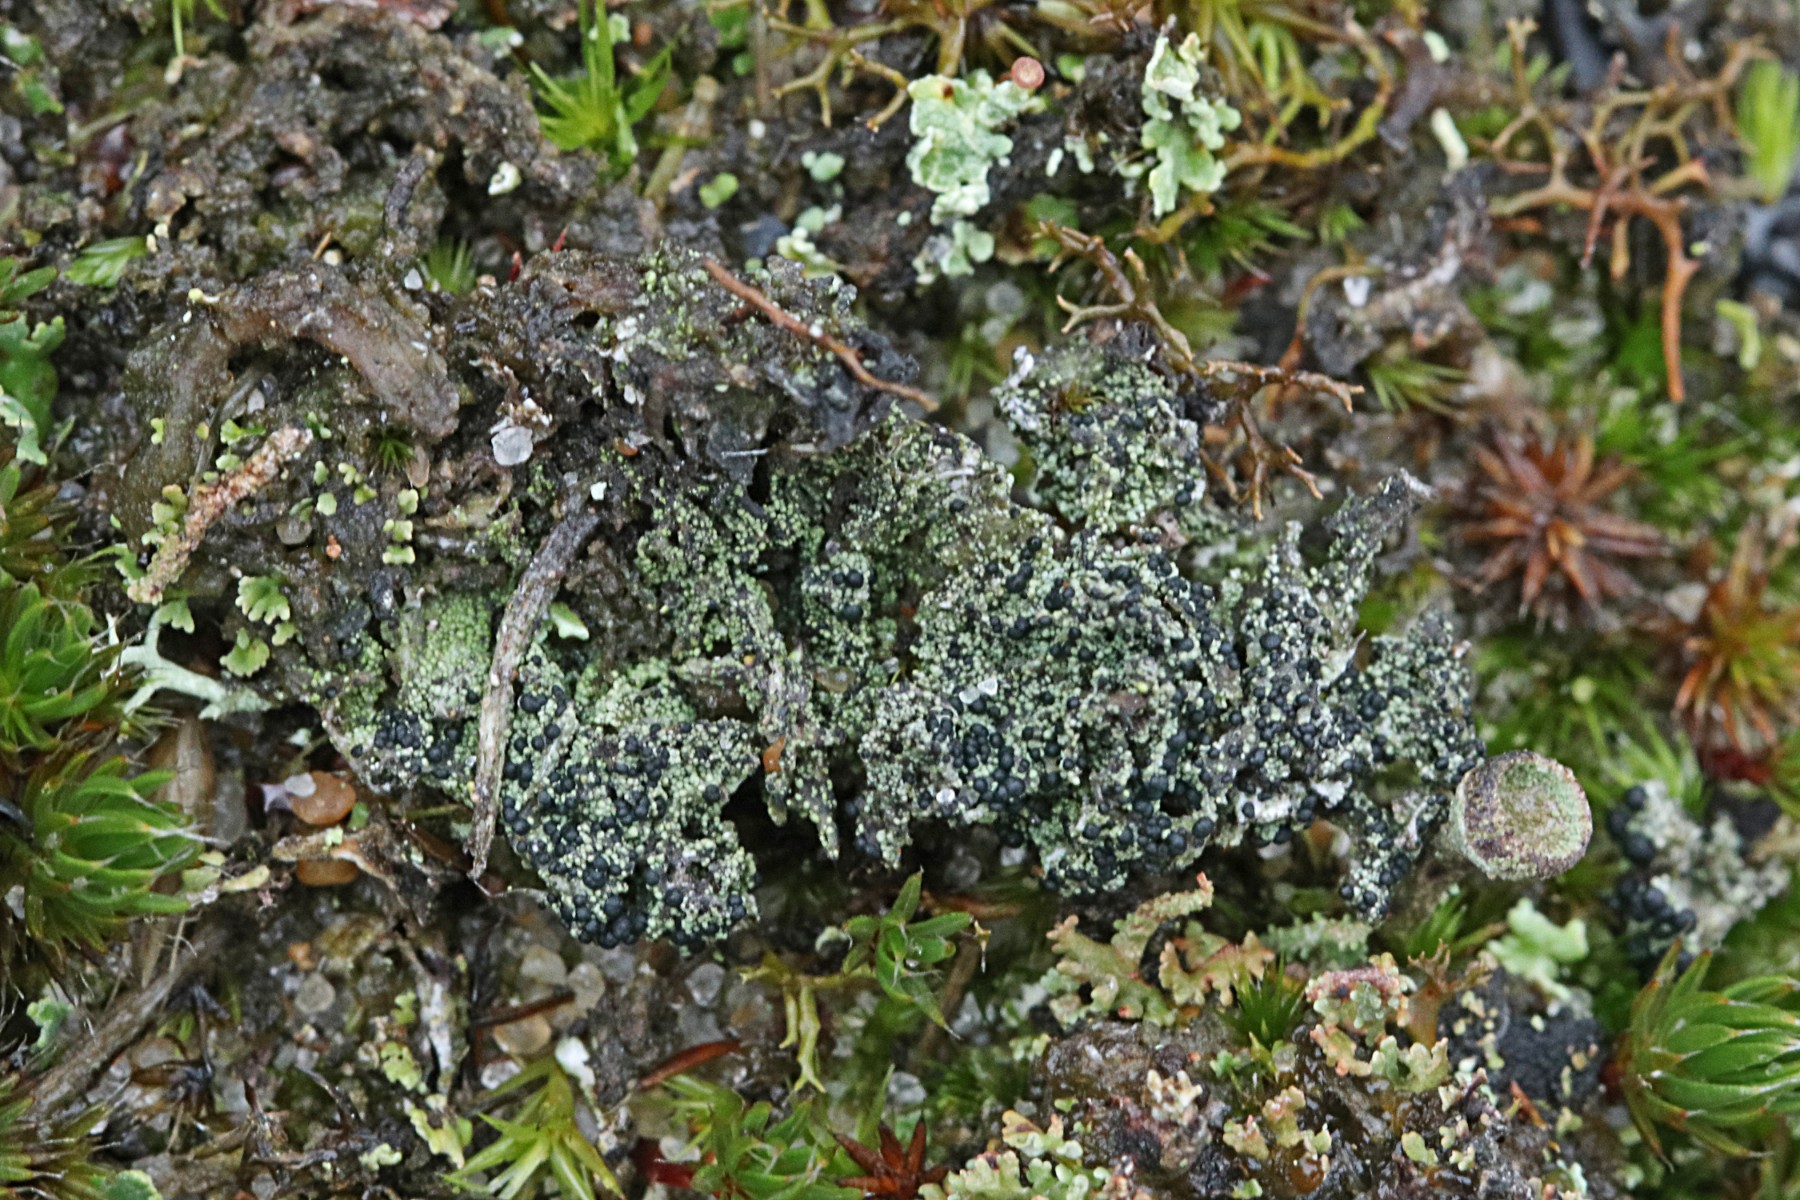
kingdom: Fungi
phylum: Ascomycota
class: Lecanoromycetes
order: Lecanorales
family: Byssolomataceae
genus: Micarea
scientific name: Micarea lignaria
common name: tørve-knaplav
